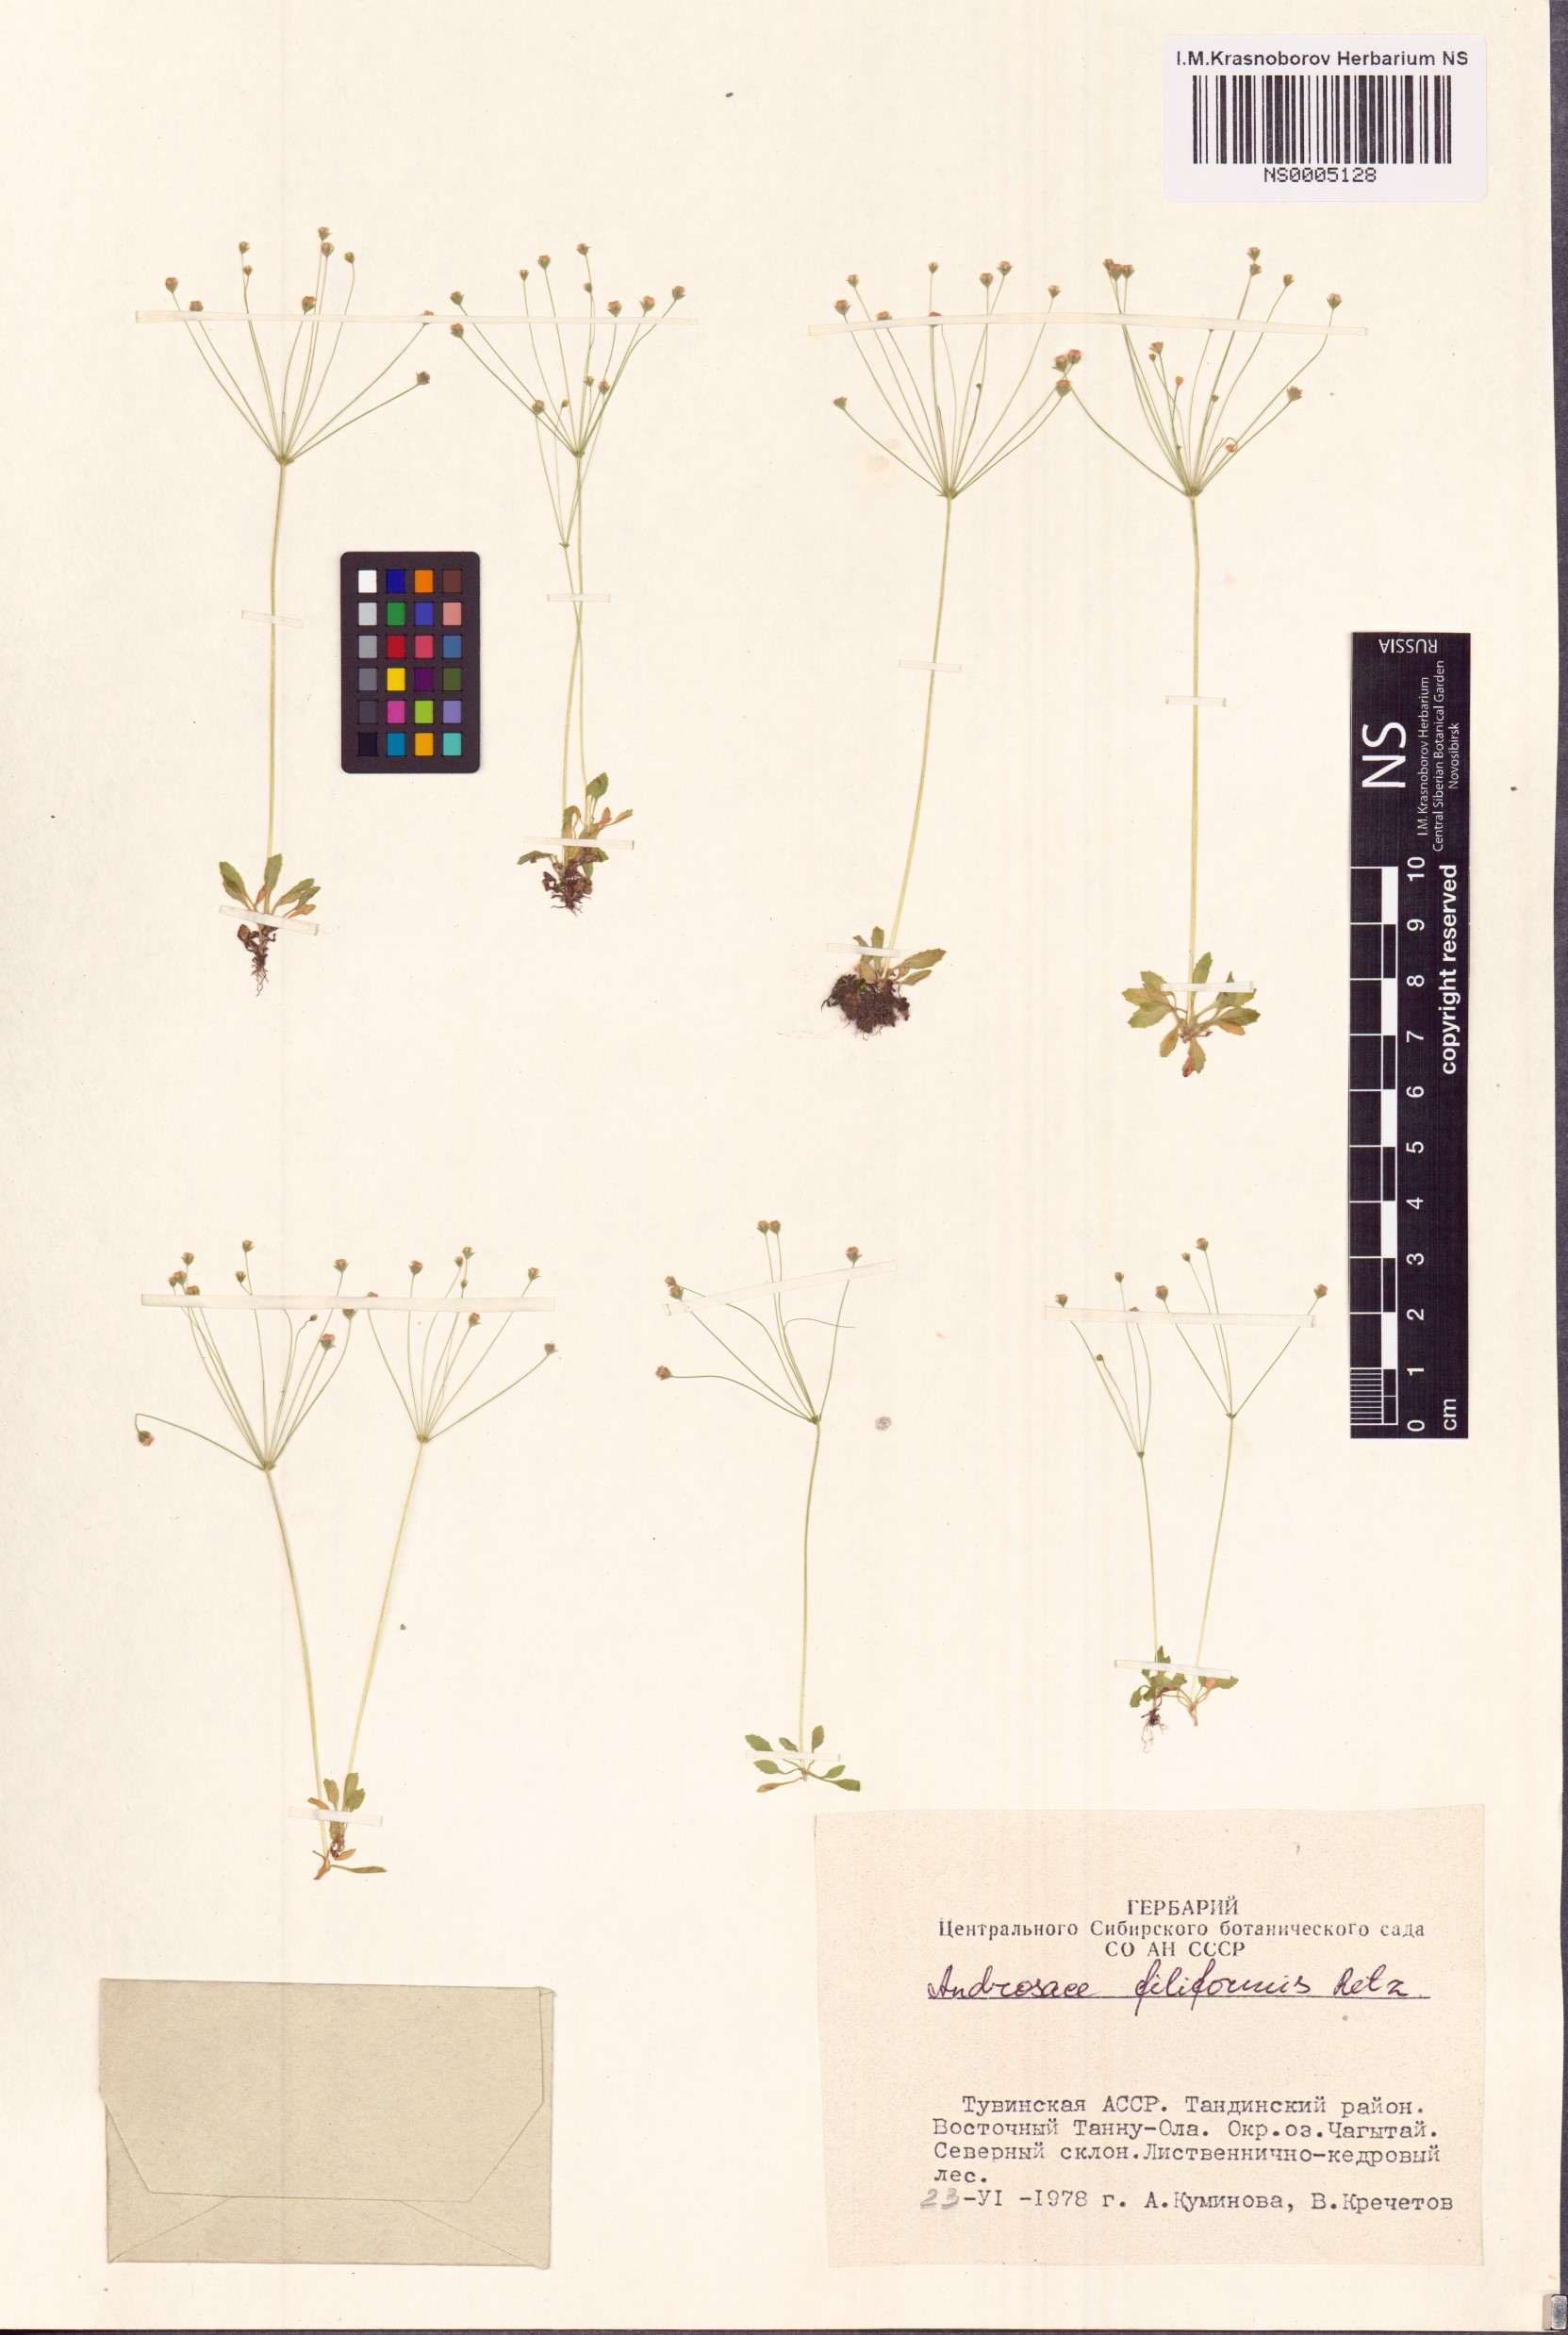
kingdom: Plantae
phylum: Tracheophyta
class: Magnoliopsida
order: Ericales
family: Primulaceae
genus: Androsace
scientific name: Androsace filiformis
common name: Filiform rock jasmine
